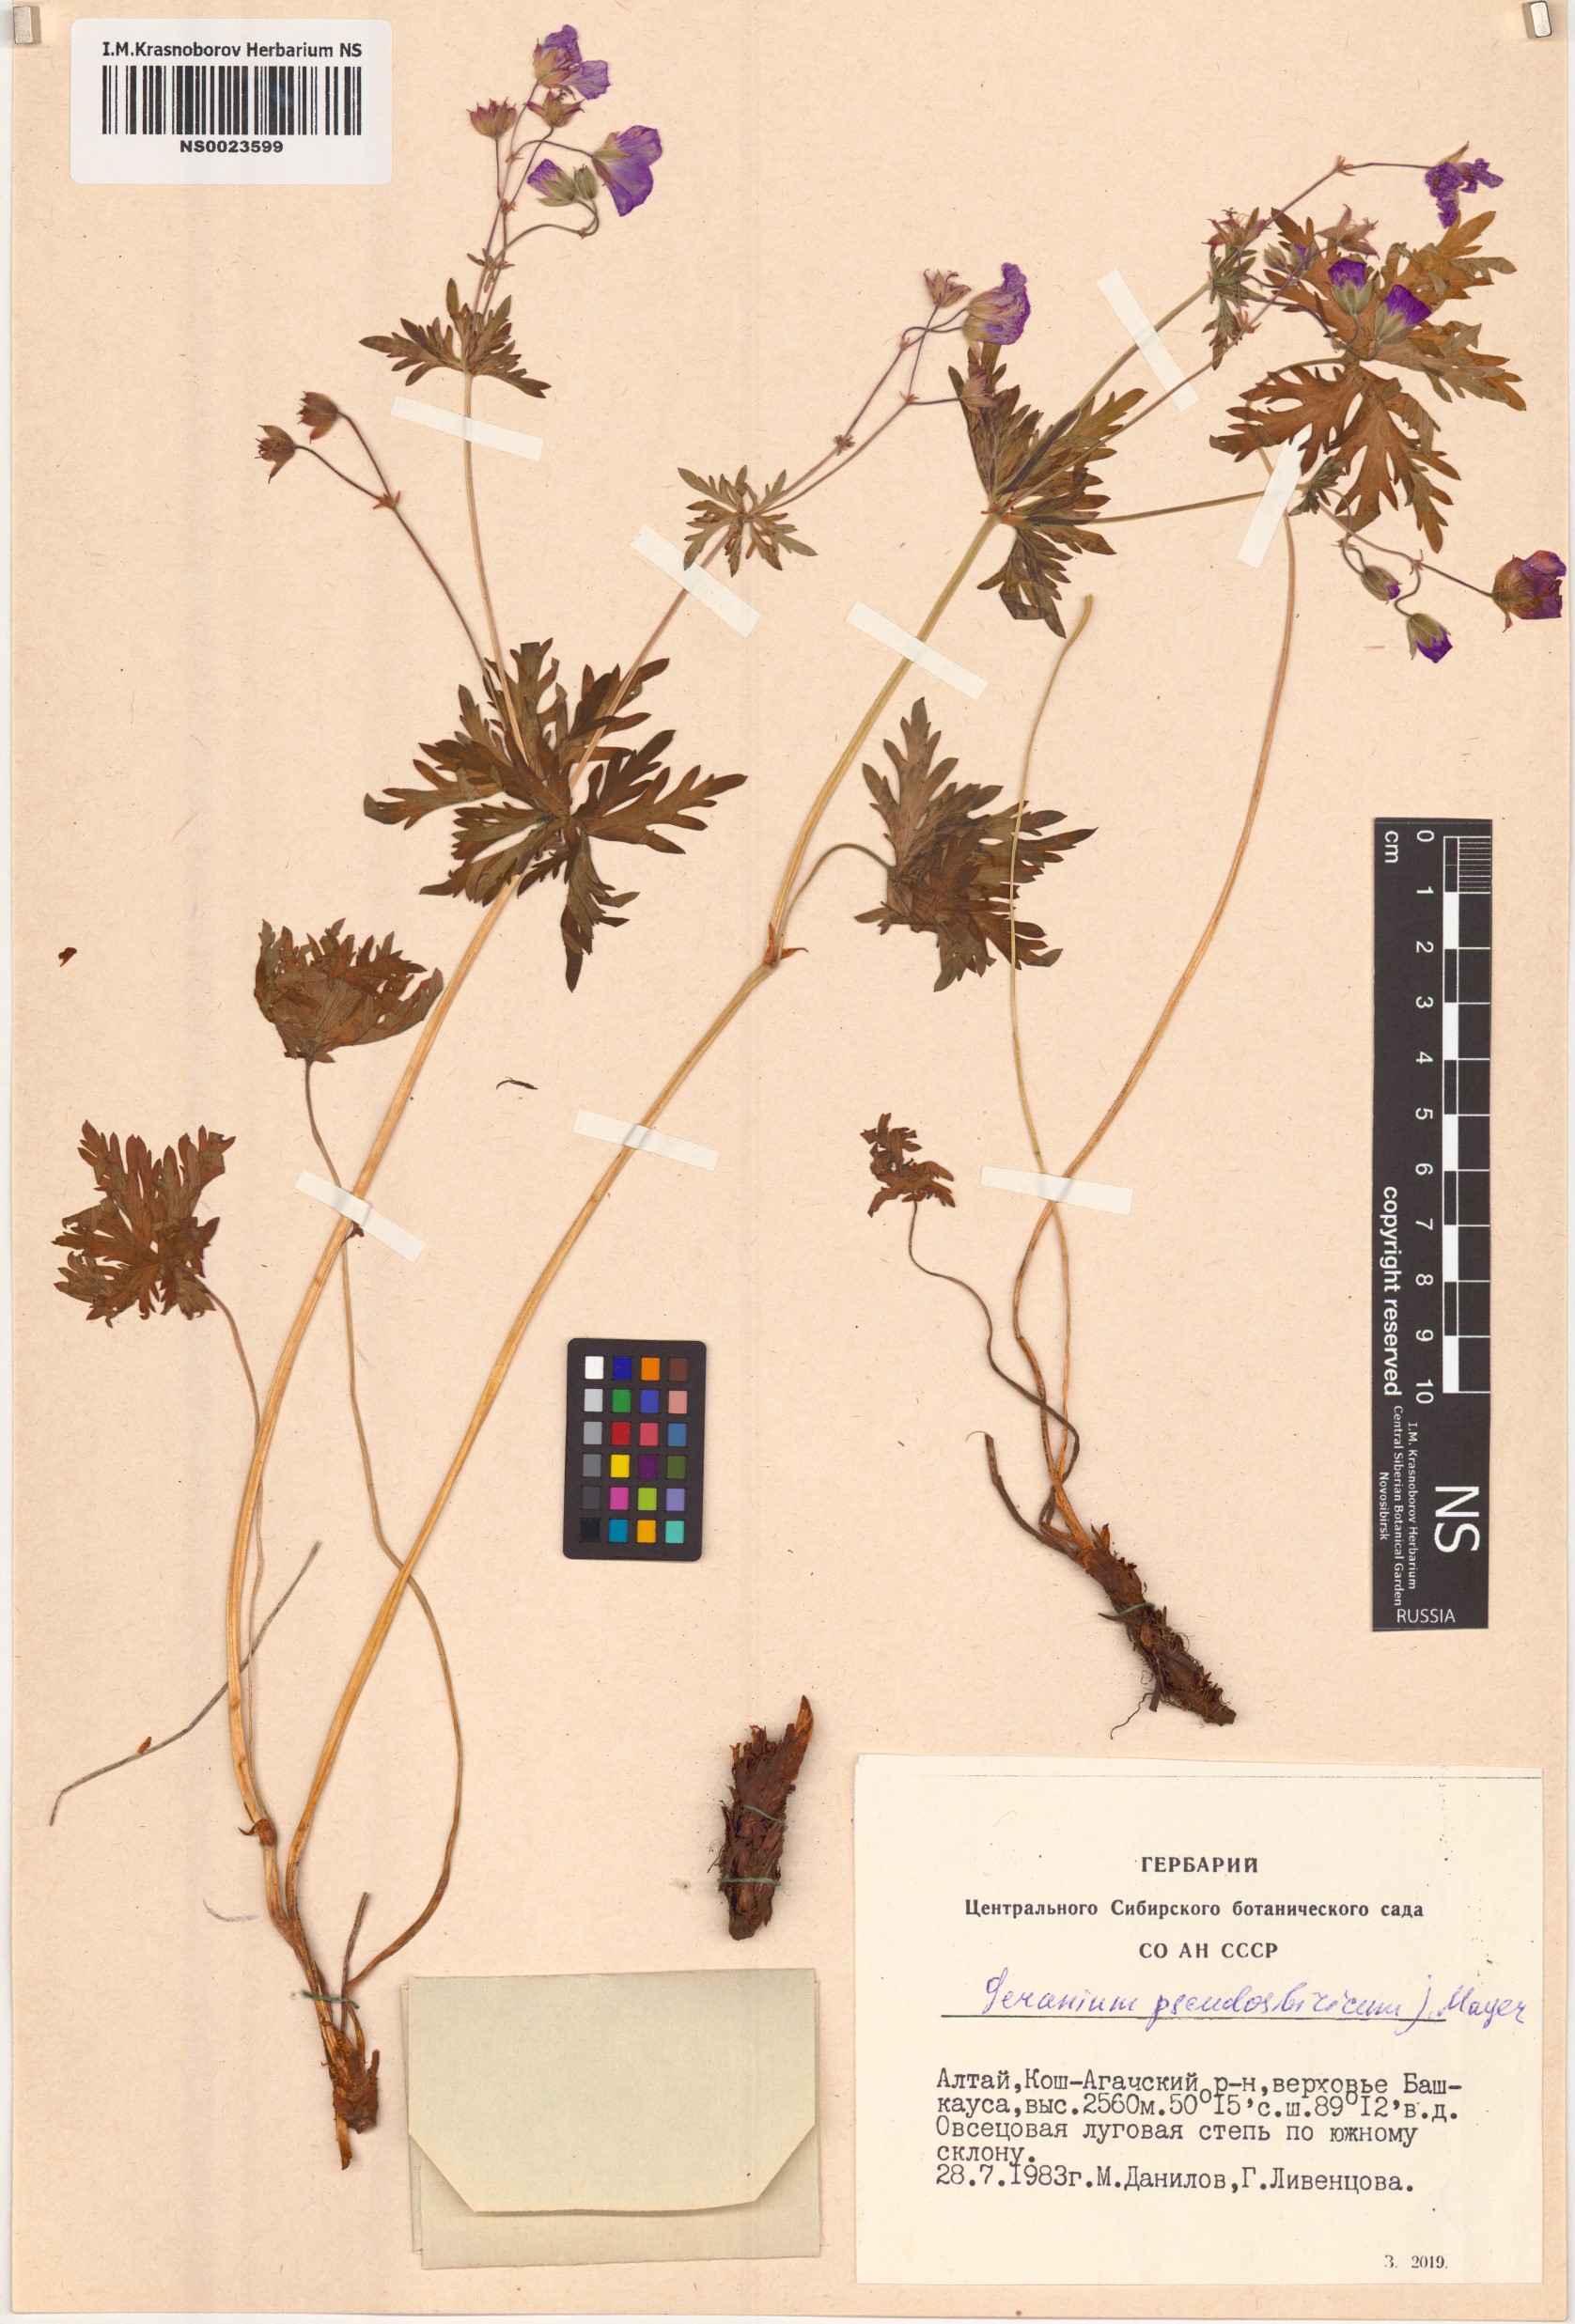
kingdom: Plantae
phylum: Tracheophyta
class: Magnoliopsida
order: Geraniales
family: Geraniaceae
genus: Geranium
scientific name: Geranium pseudosibiricum
